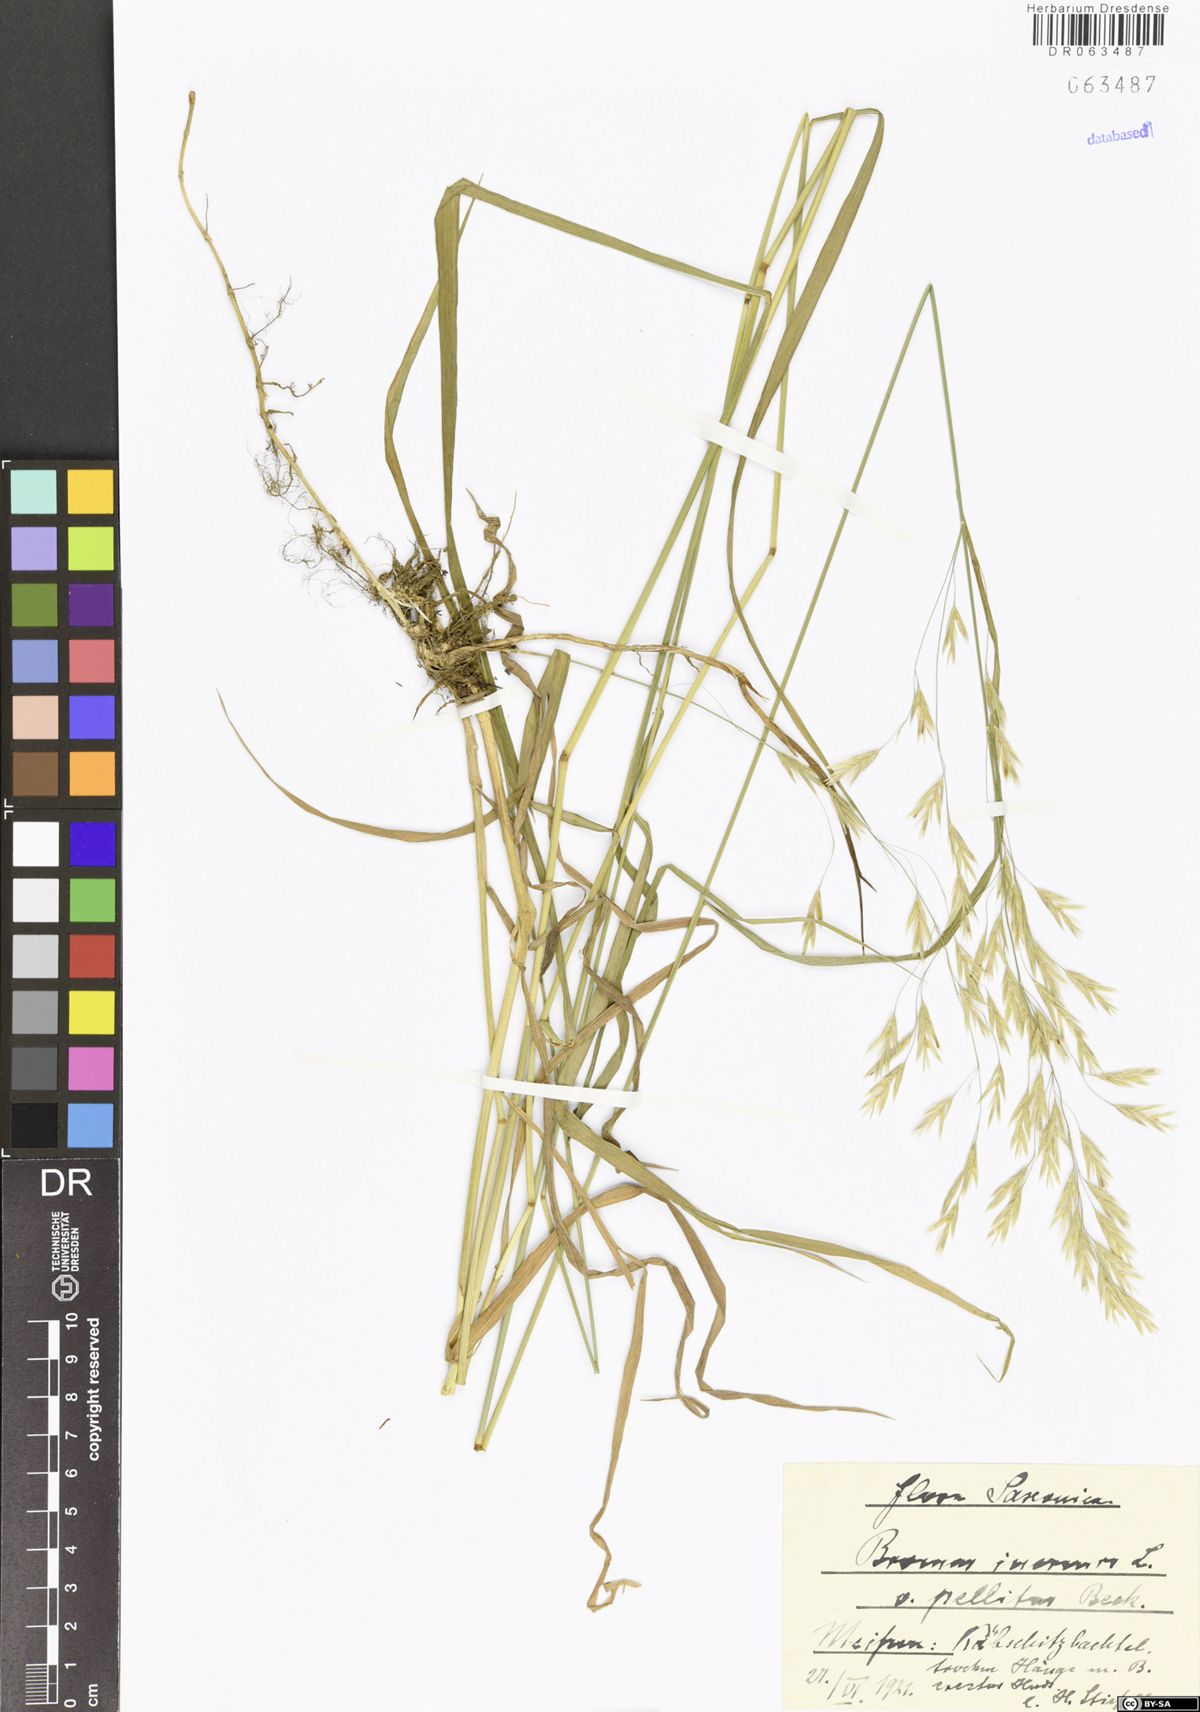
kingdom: Plantae
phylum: Tracheophyta
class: Liliopsida
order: Poales
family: Poaceae
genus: Bromus
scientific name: Bromus inermis
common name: Smooth brome
